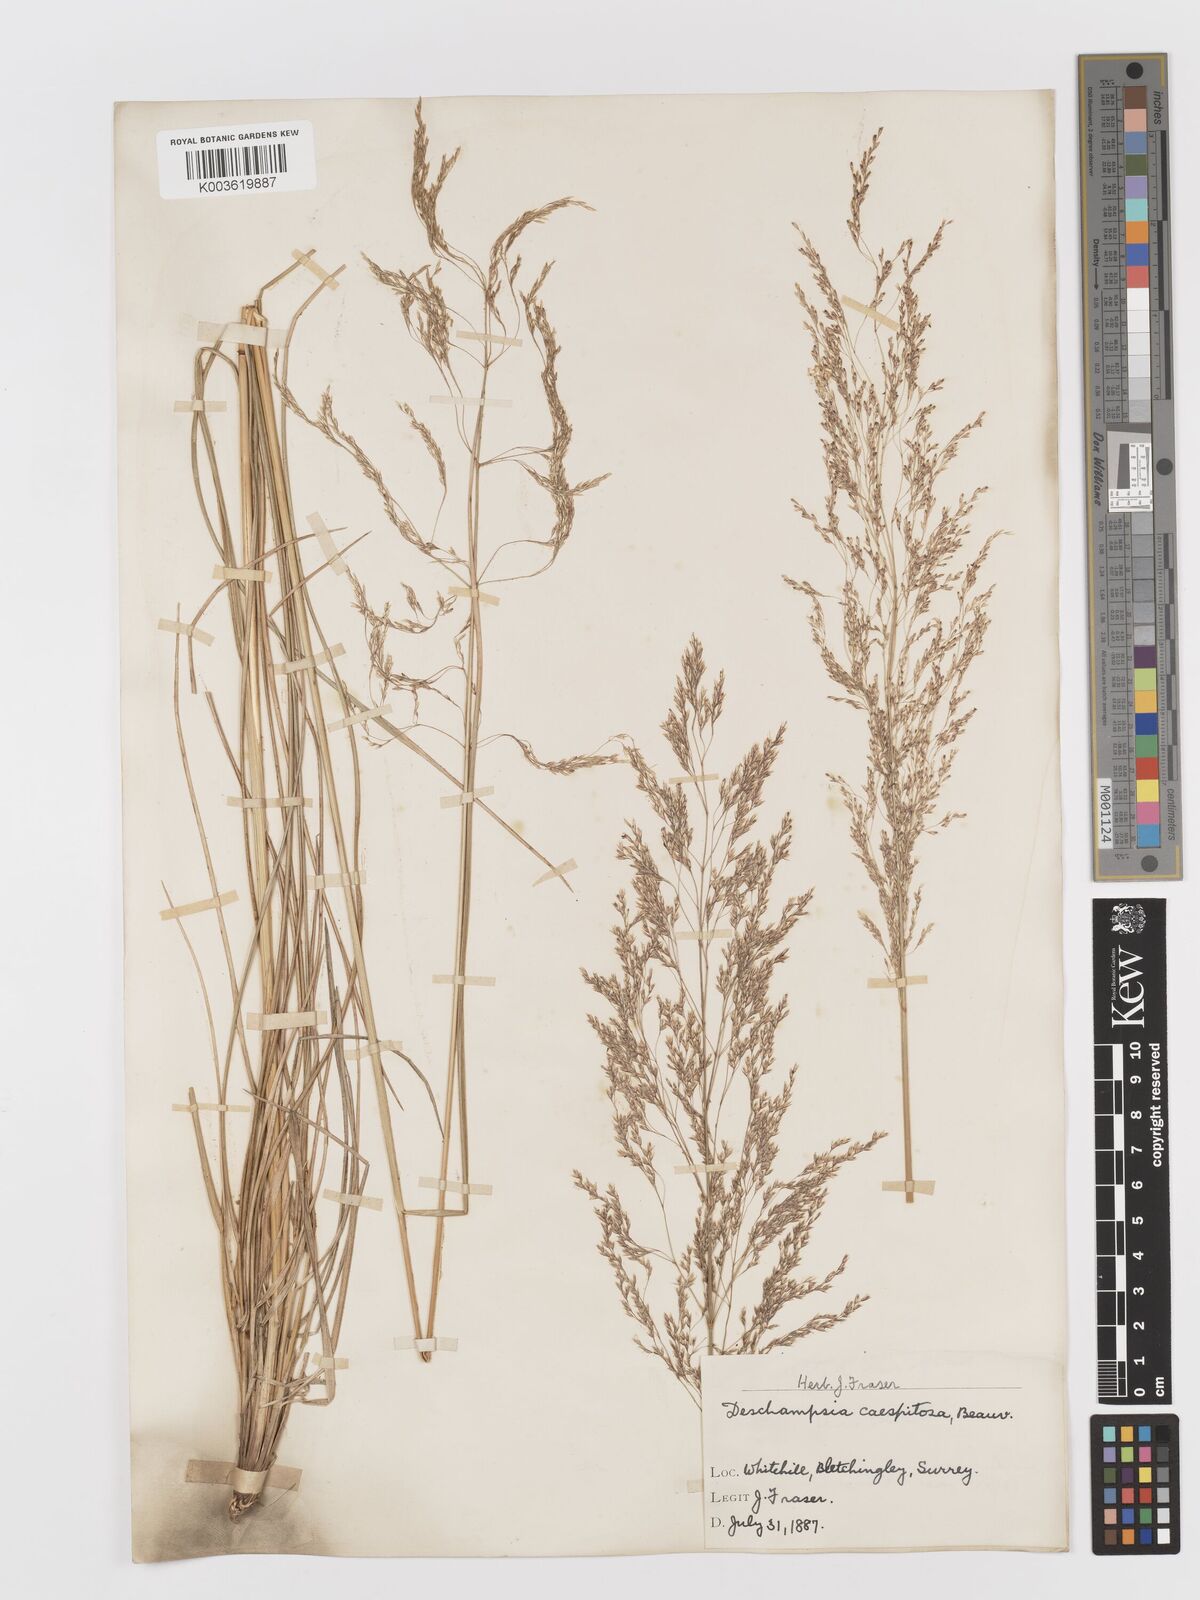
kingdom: Plantae
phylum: Tracheophyta
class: Liliopsida
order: Poales
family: Poaceae
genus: Deschampsia
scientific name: Deschampsia cespitosa
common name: Tufted hair-grass
